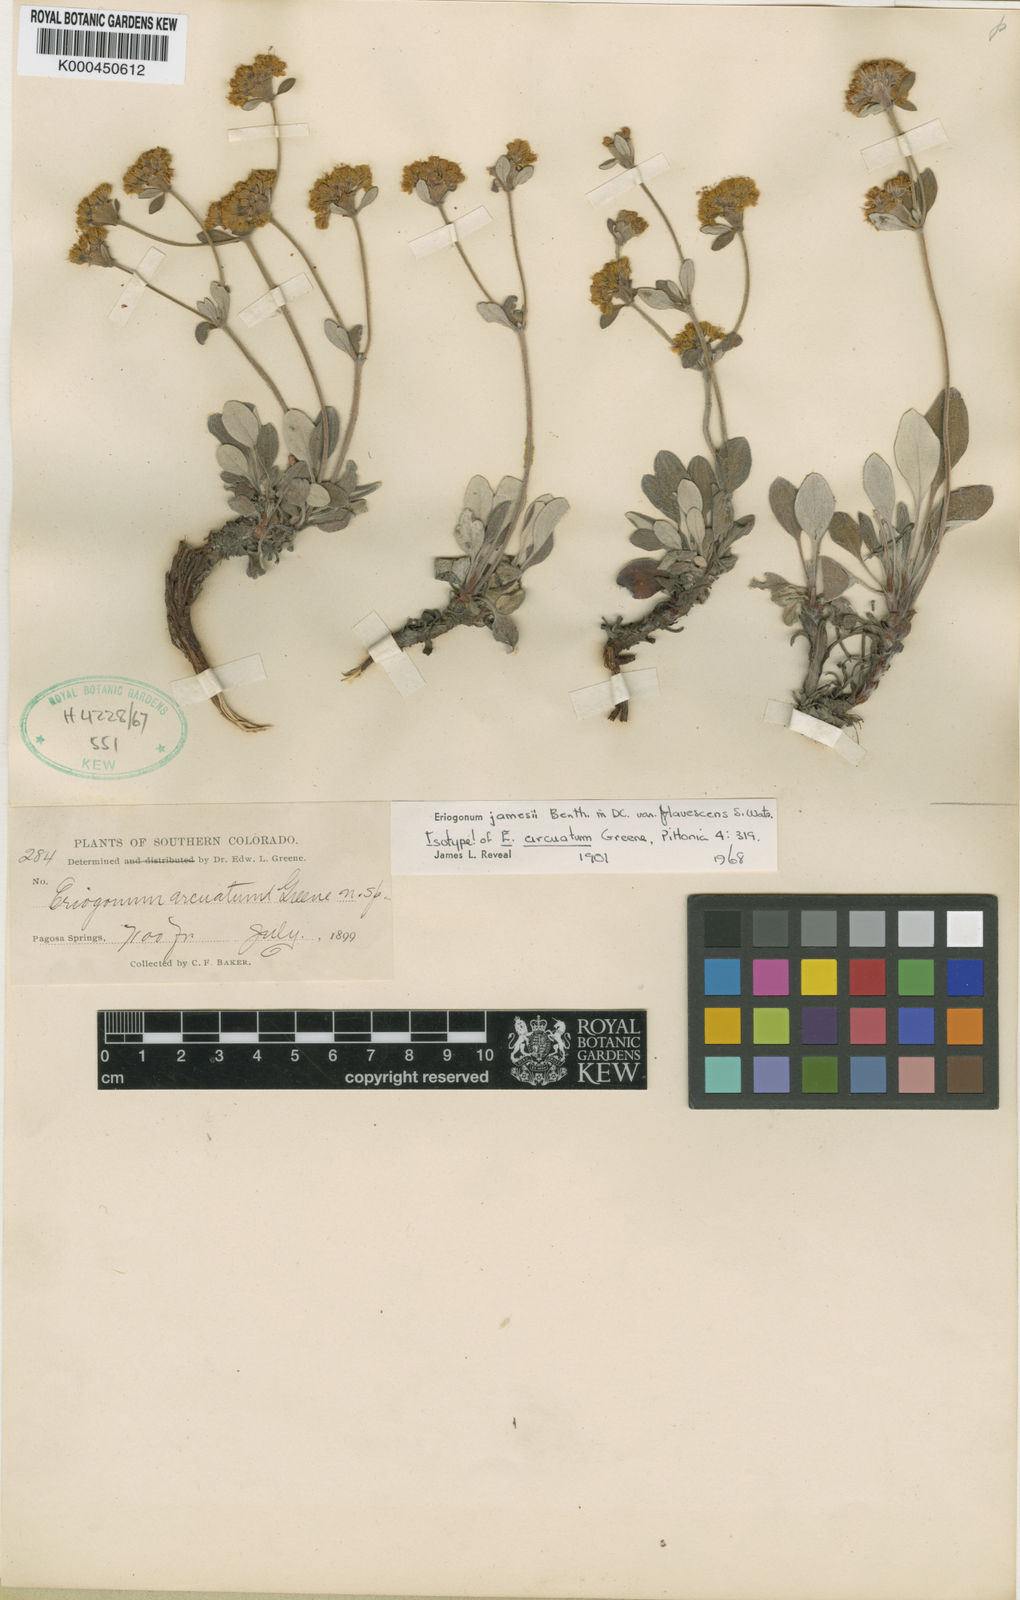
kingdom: Plantae
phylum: Tracheophyta
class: Magnoliopsida
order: Caryophyllales
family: Polygonaceae
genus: Eriogonum
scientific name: Eriogonum arcuatum
